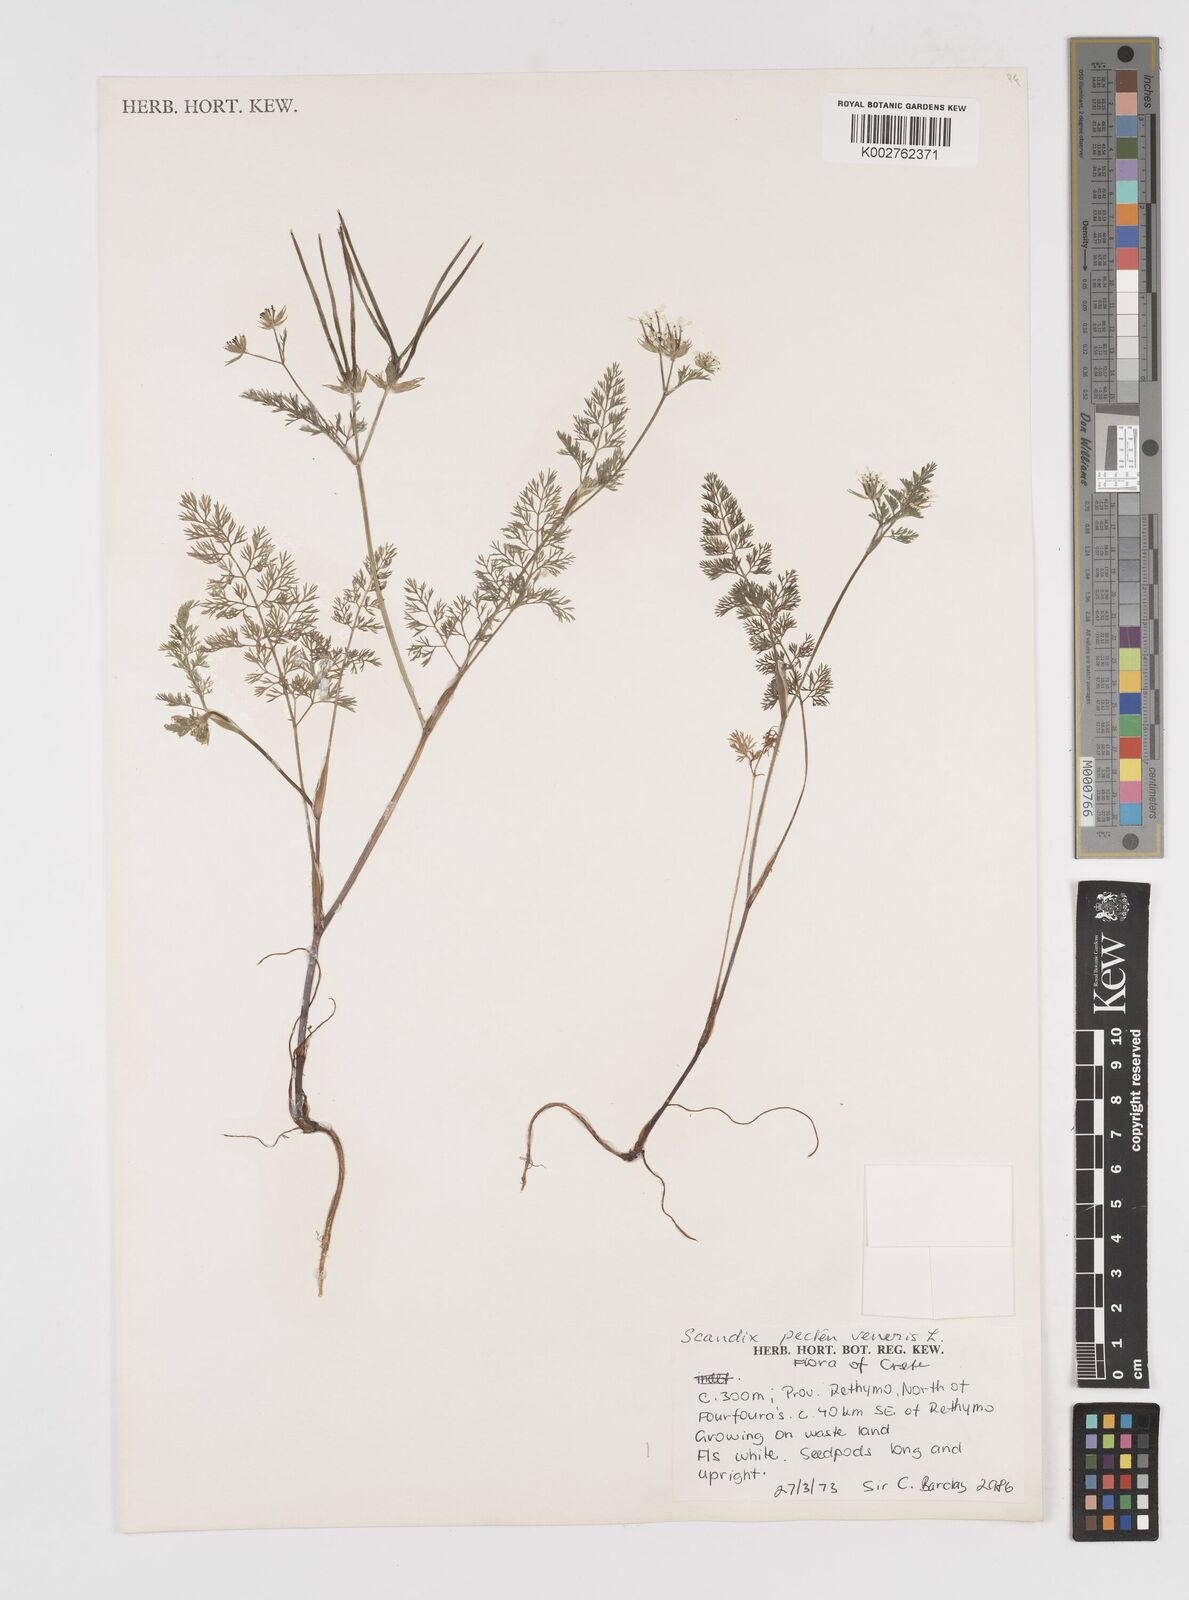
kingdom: Plantae
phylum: Tracheophyta
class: Magnoliopsida
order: Apiales
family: Apiaceae
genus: Scandix
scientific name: Scandix pecten-veneris
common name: Shepherd's-needle
